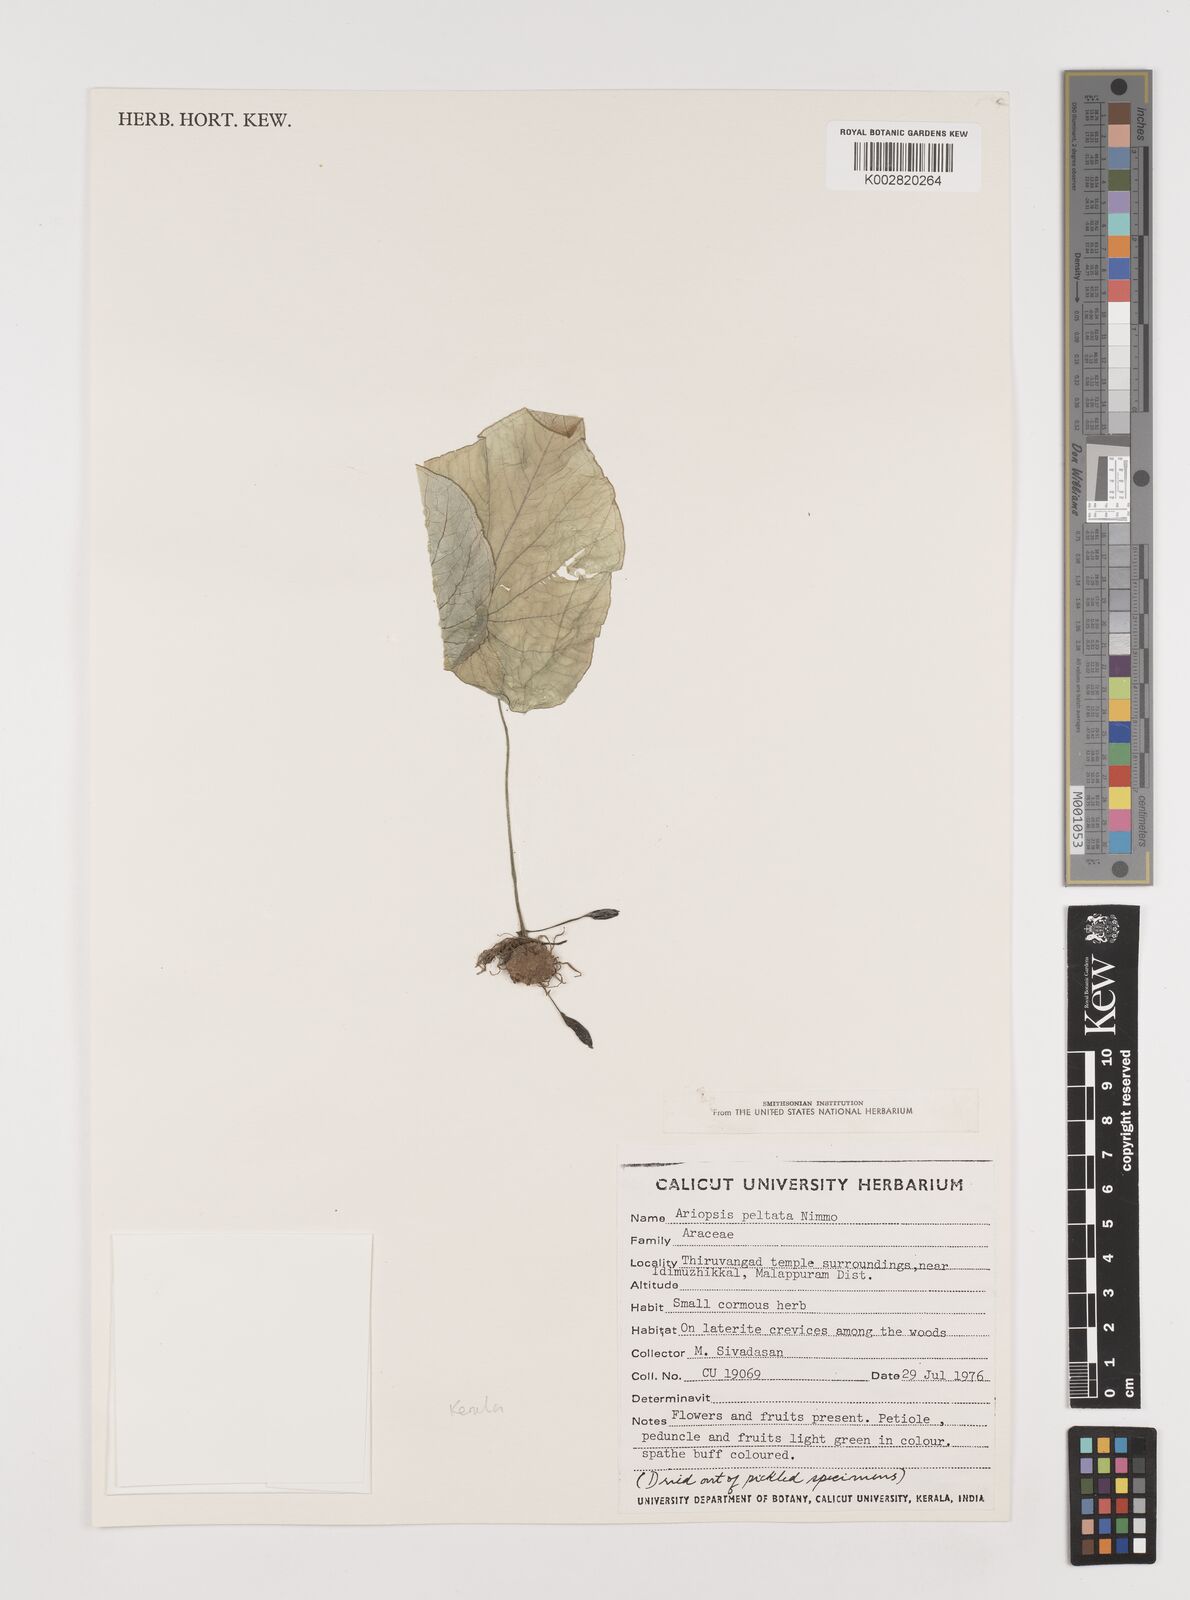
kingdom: Plantae
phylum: Tracheophyta
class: Liliopsida
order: Alismatales
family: Araceae
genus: Ariopsis
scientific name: Ariopsis peltata
